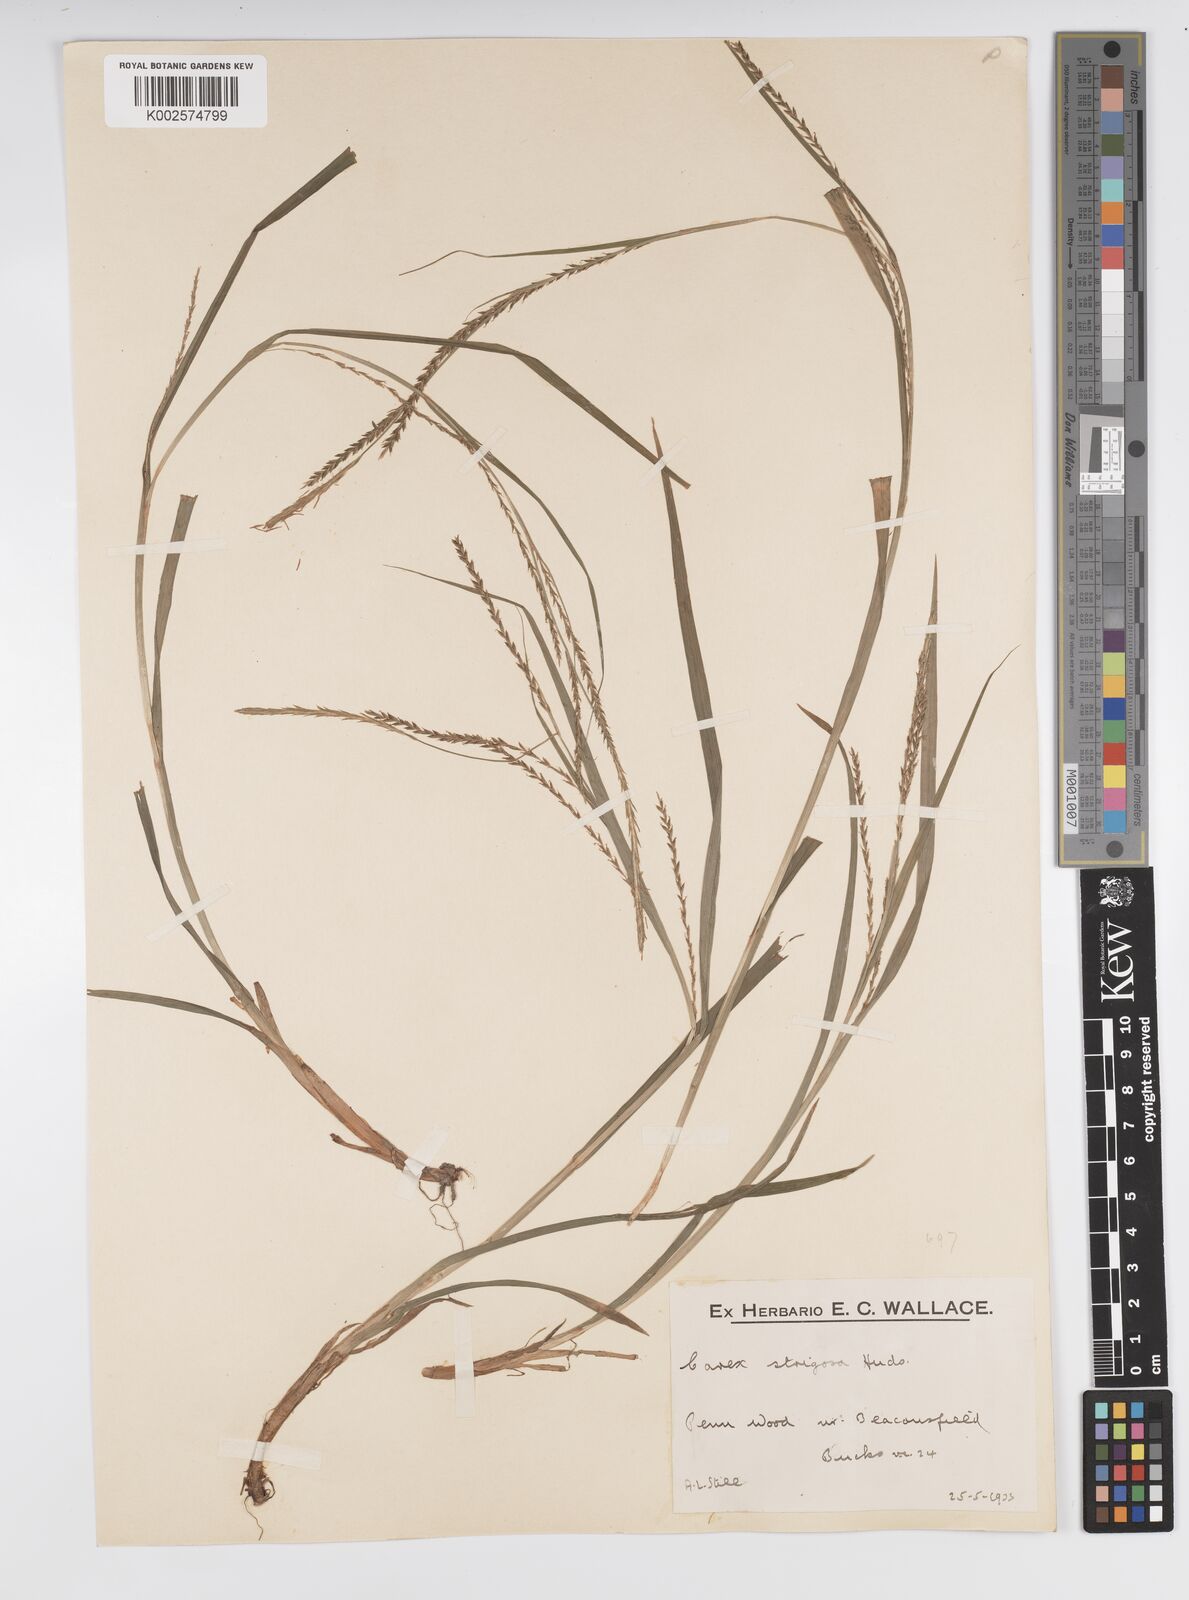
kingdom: Plantae
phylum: Tracheophyta
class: Liliopsida
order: Poales
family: Cyperaceae
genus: Carex
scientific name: Carex strigosa
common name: Thin-spiked wood-sedge
